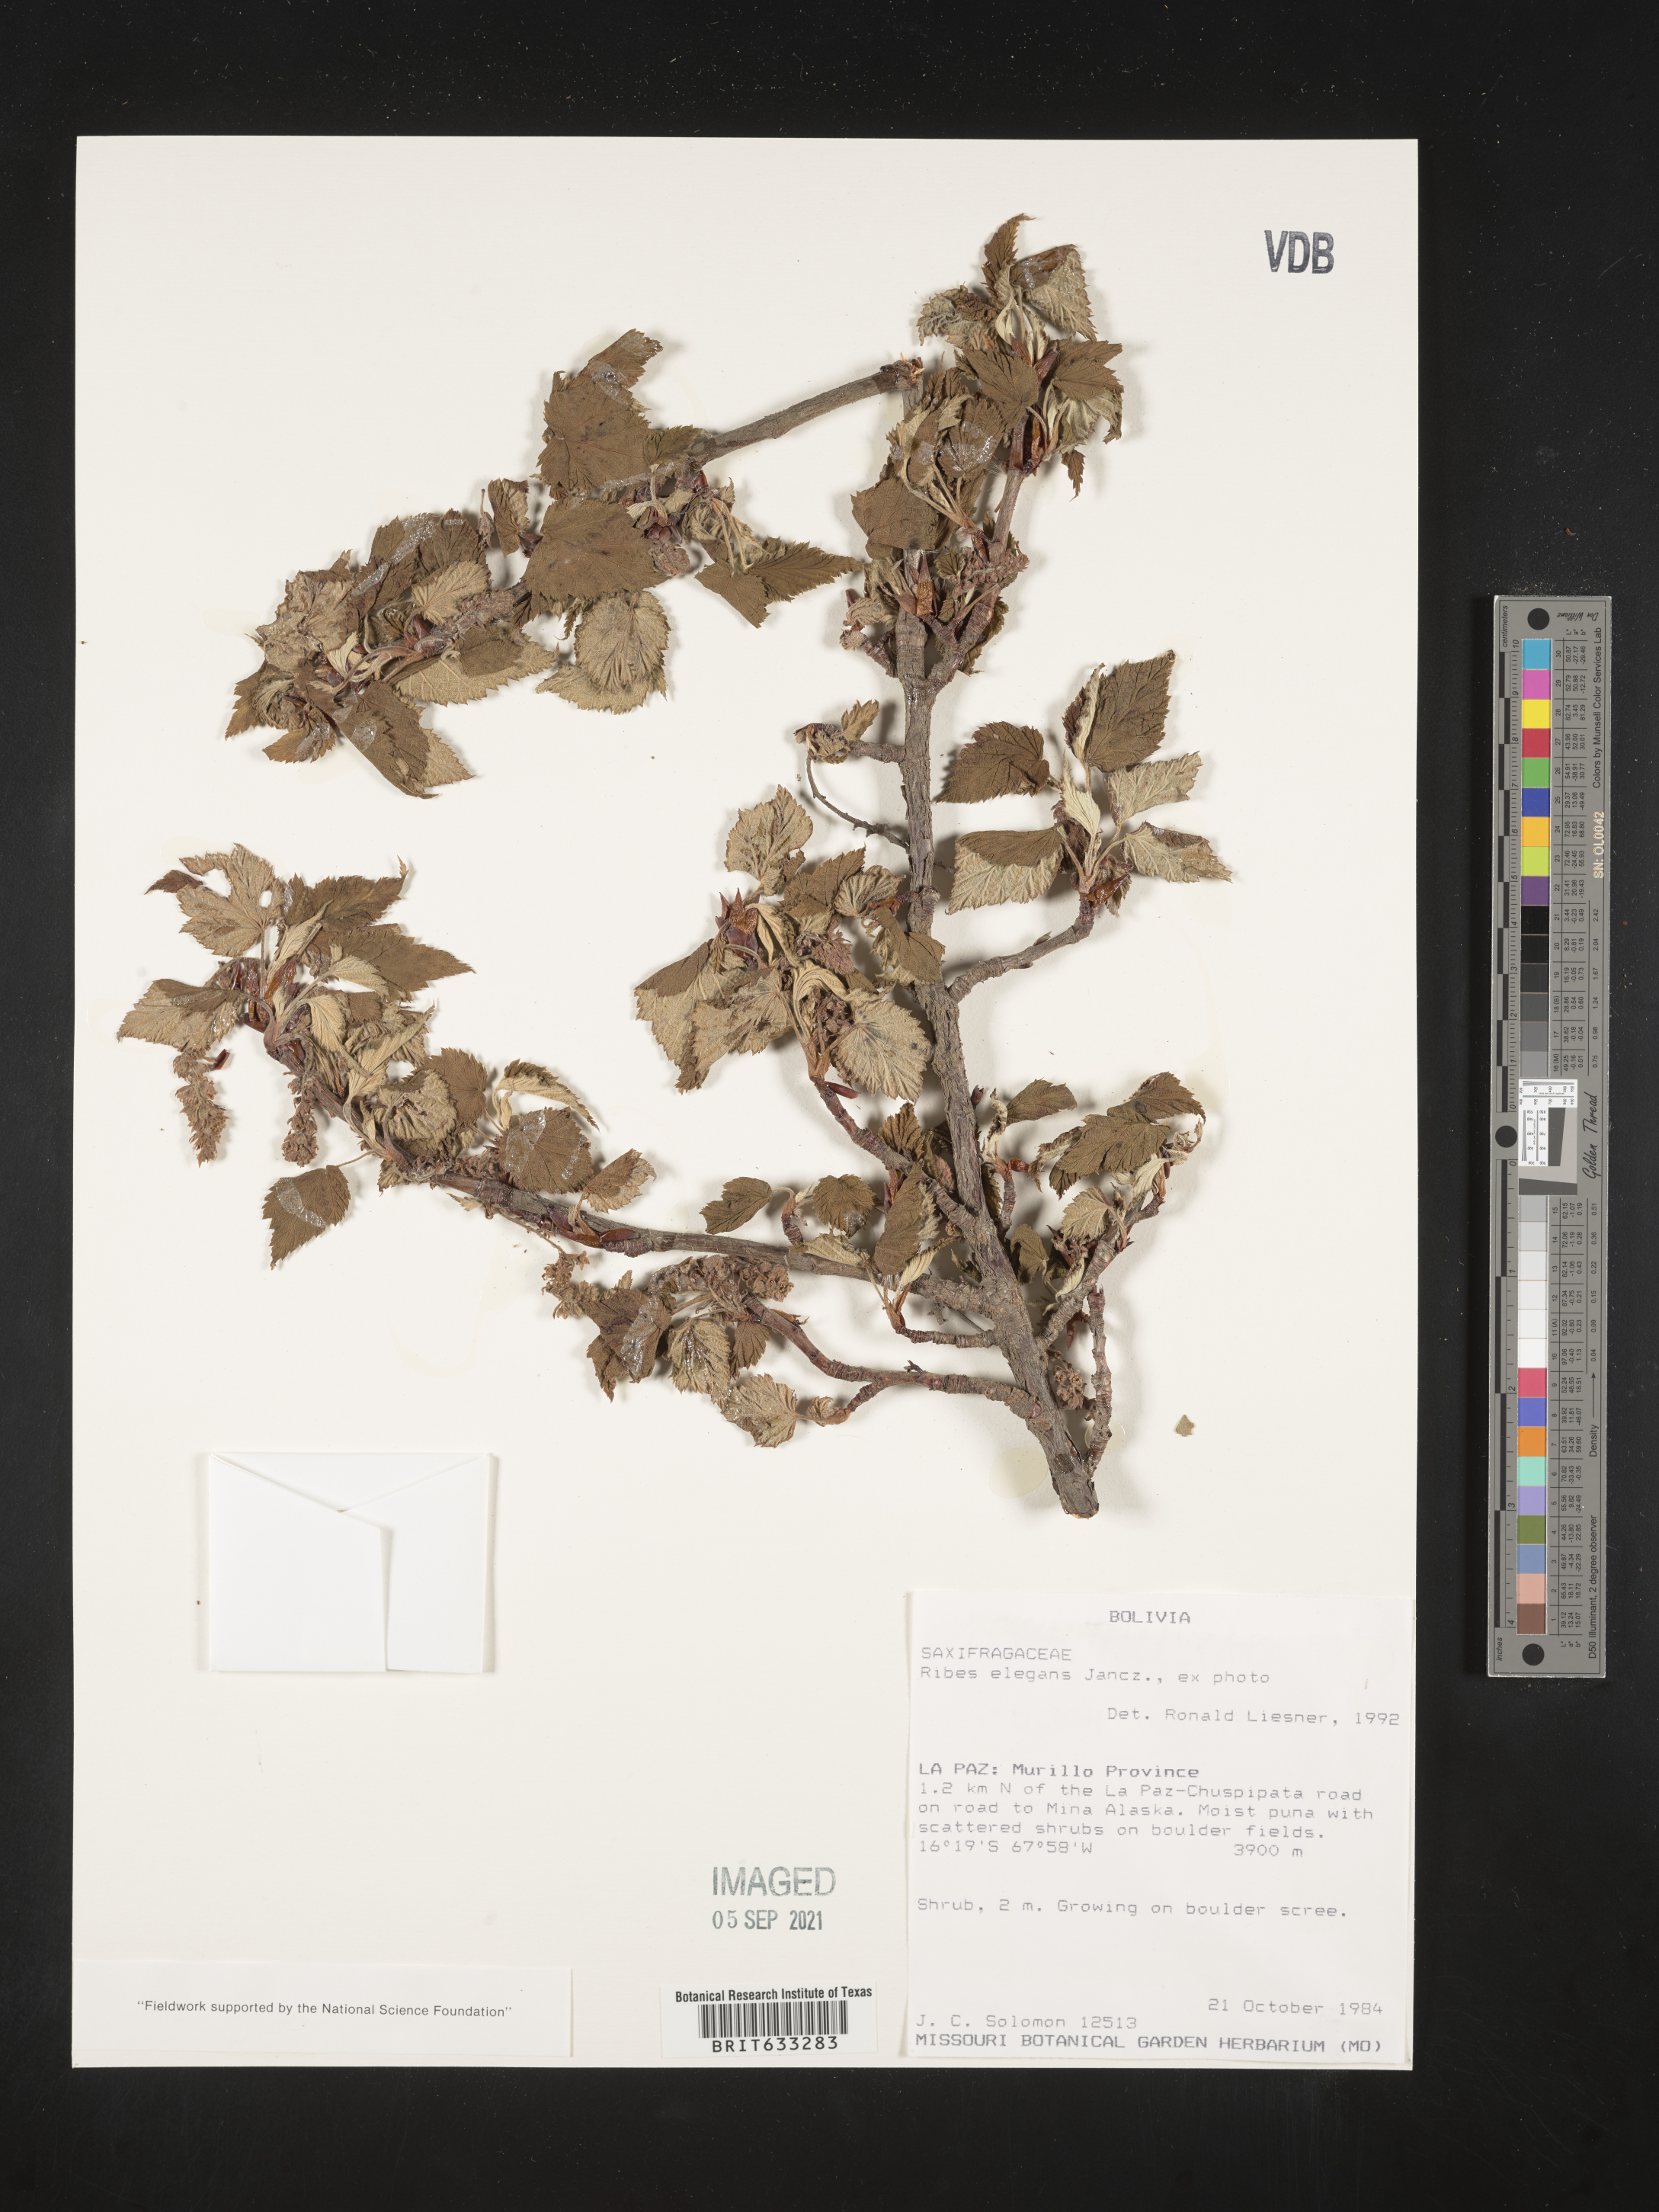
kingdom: Plantae
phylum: Tracheophyta
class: Magnoliopsida
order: Saxifragales
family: Grossulariaceae
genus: Ribes
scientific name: Ribes
